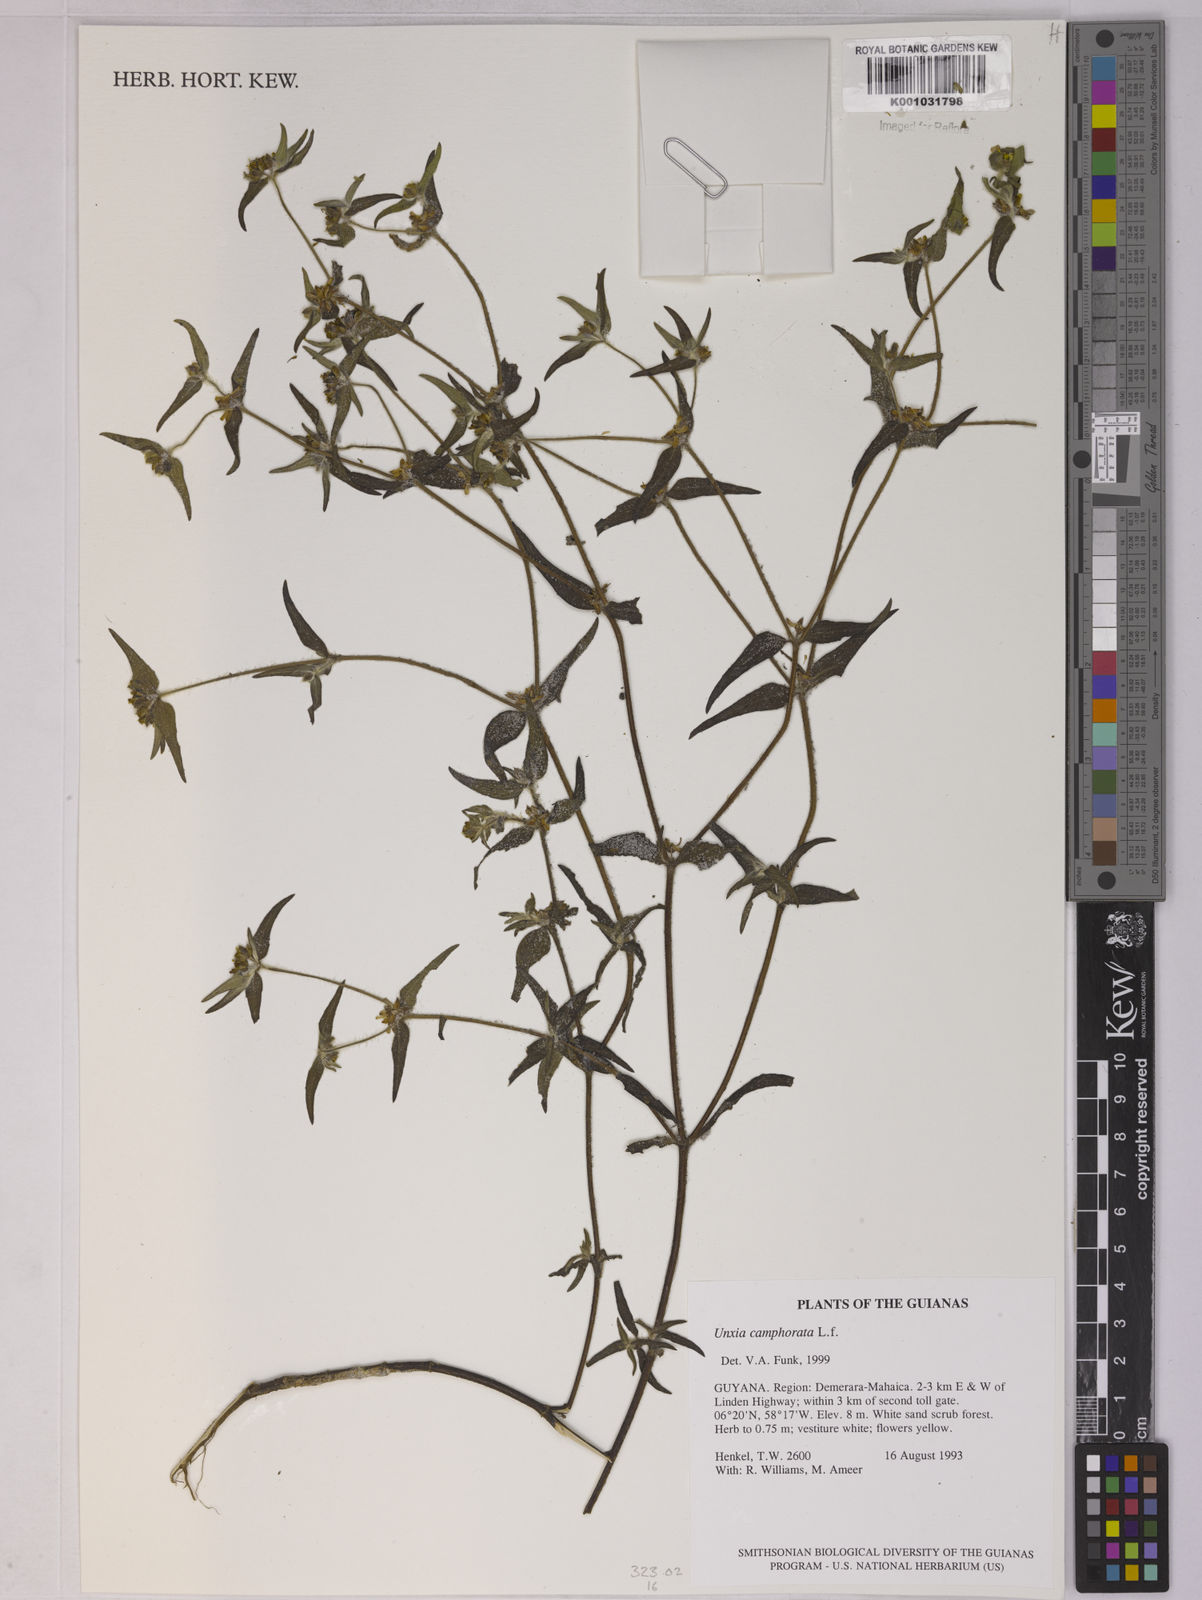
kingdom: Plantae
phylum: Tracheophyta
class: Magnoliopsida
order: Asterales
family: Asteraceae
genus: Unxia
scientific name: Unxia camphorata
